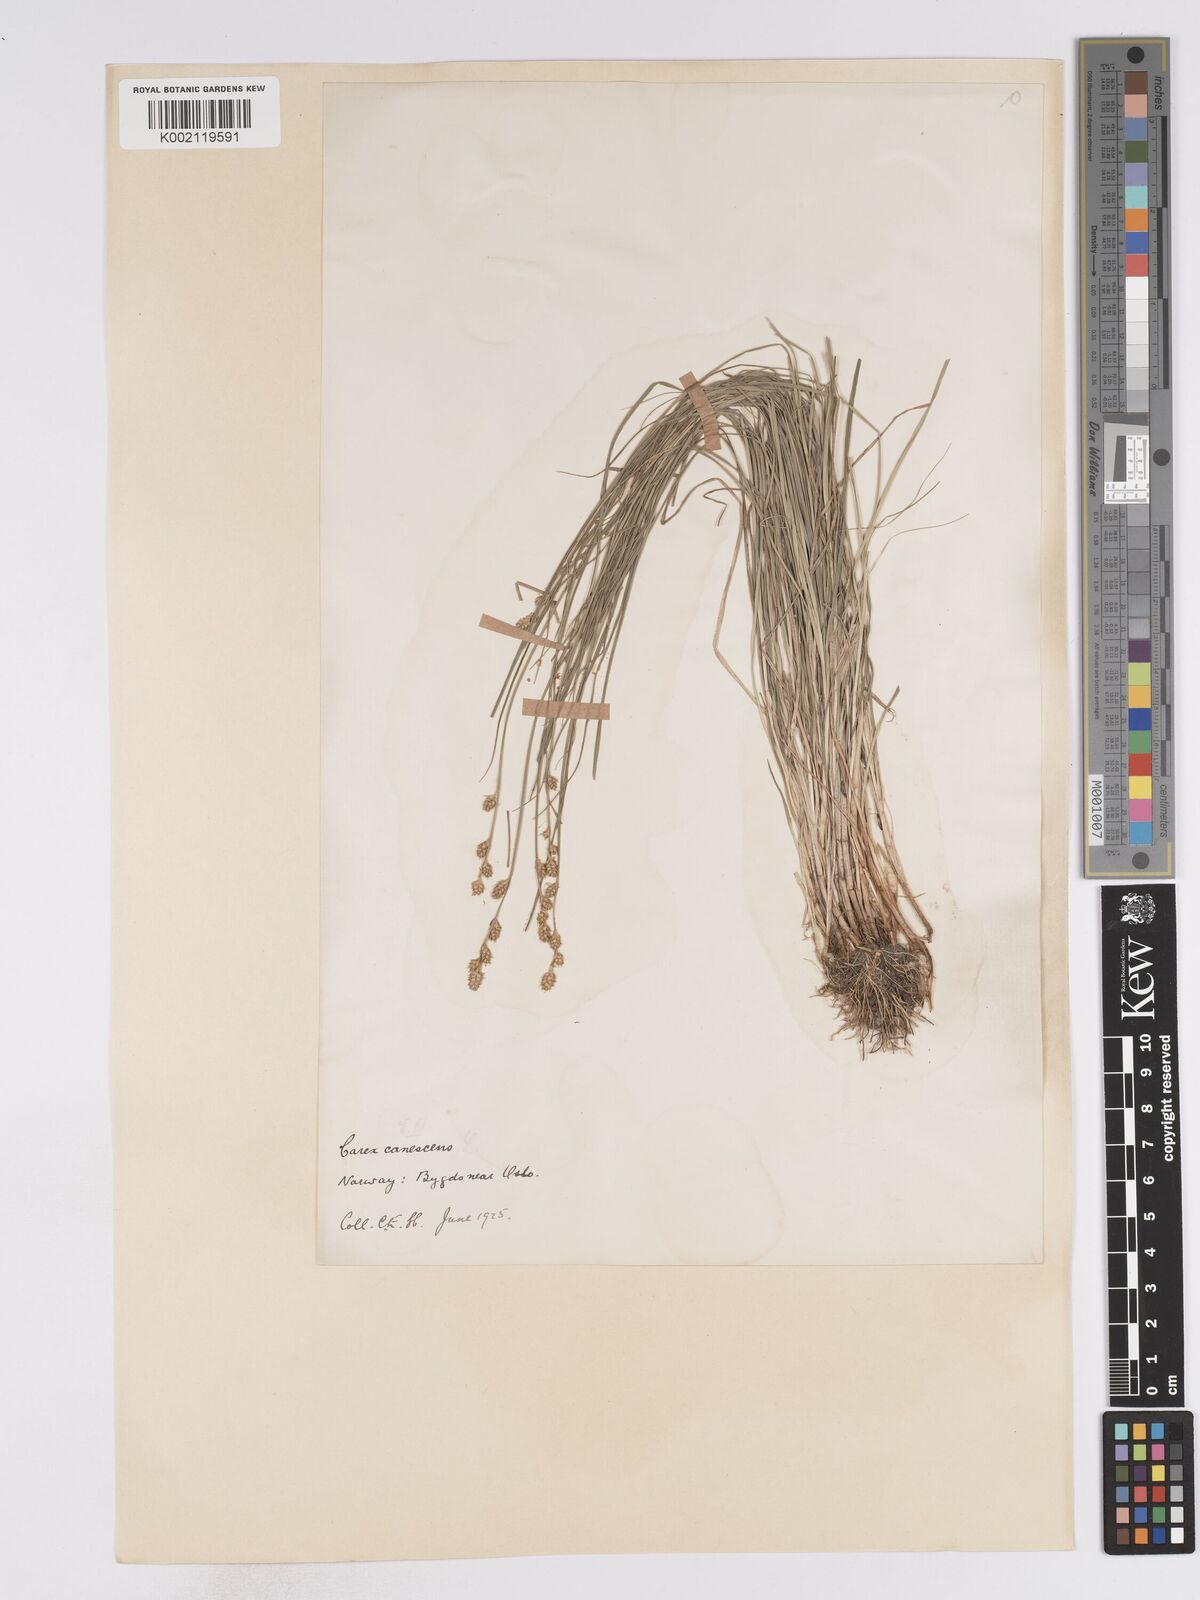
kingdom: Plantae
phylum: Tracheophyta
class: Liliopsida
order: Poales
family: Cyperaceae
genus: Carex
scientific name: Carex curta
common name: White sedge
